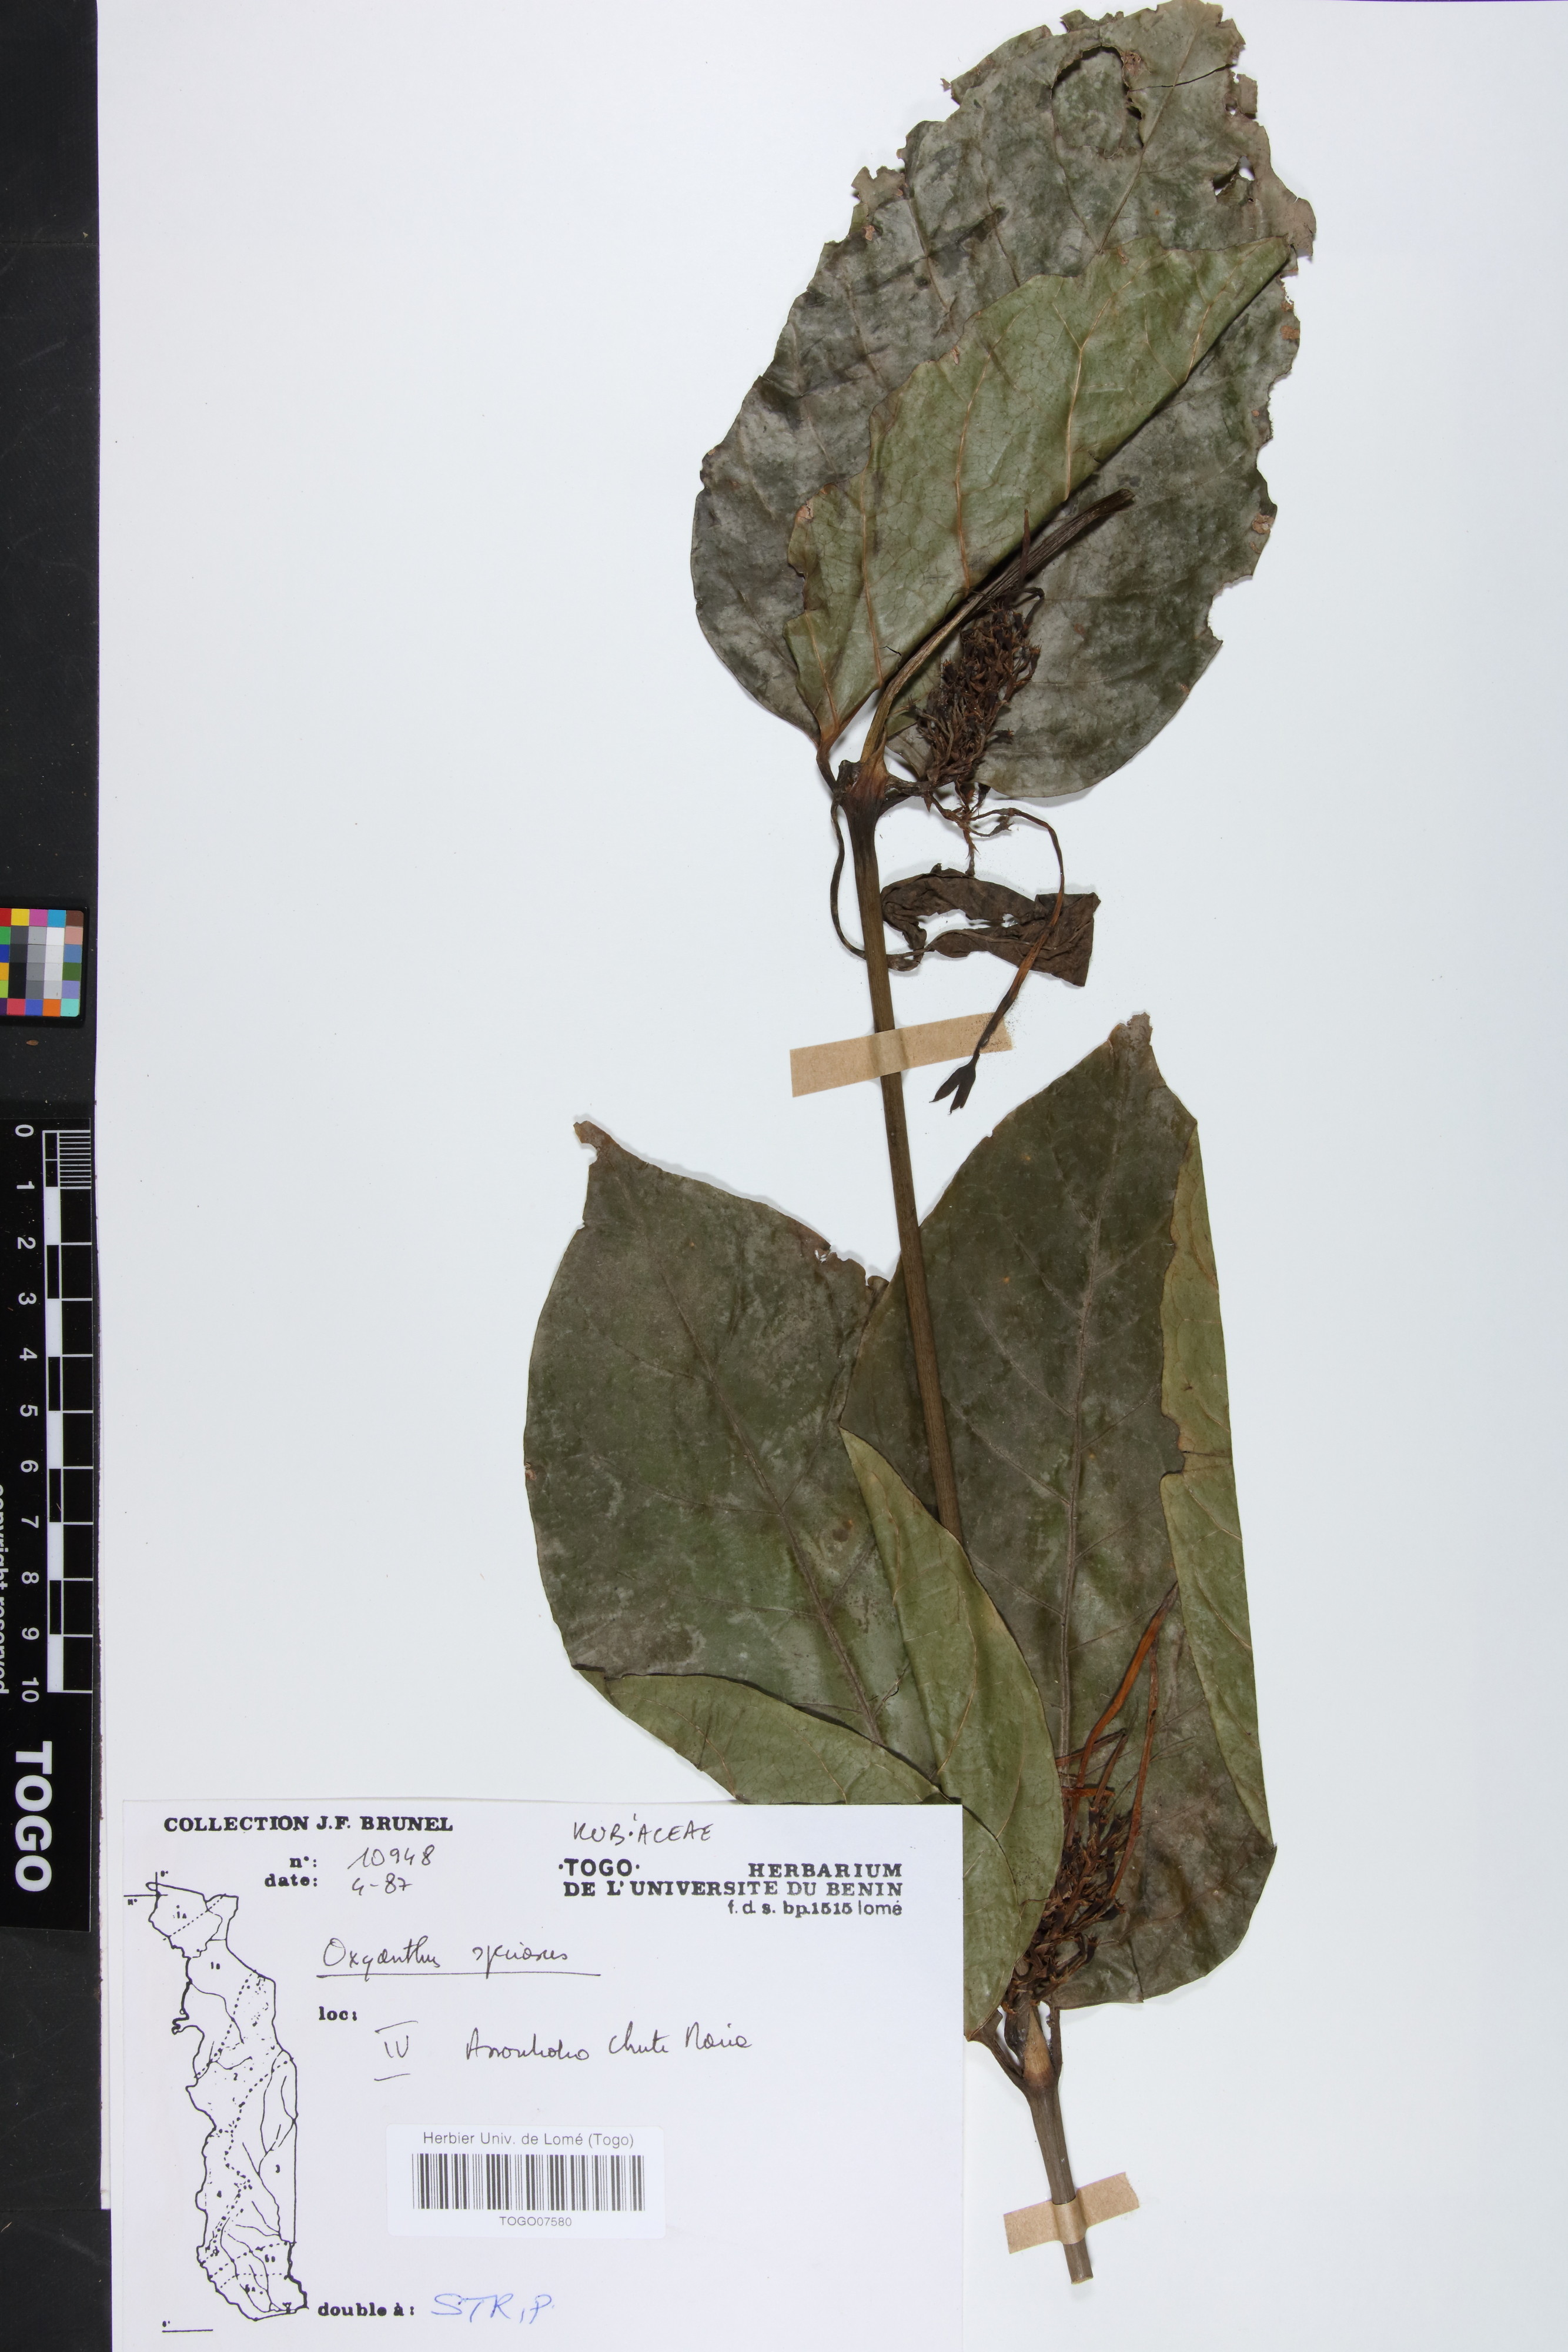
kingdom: Plantae
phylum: Tracheophyta
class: Magnoliopsida
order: Gentianales
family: Rubiaceae
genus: Oxyanthus
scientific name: Oxyanthus speciosus
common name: Whipstick loquat
